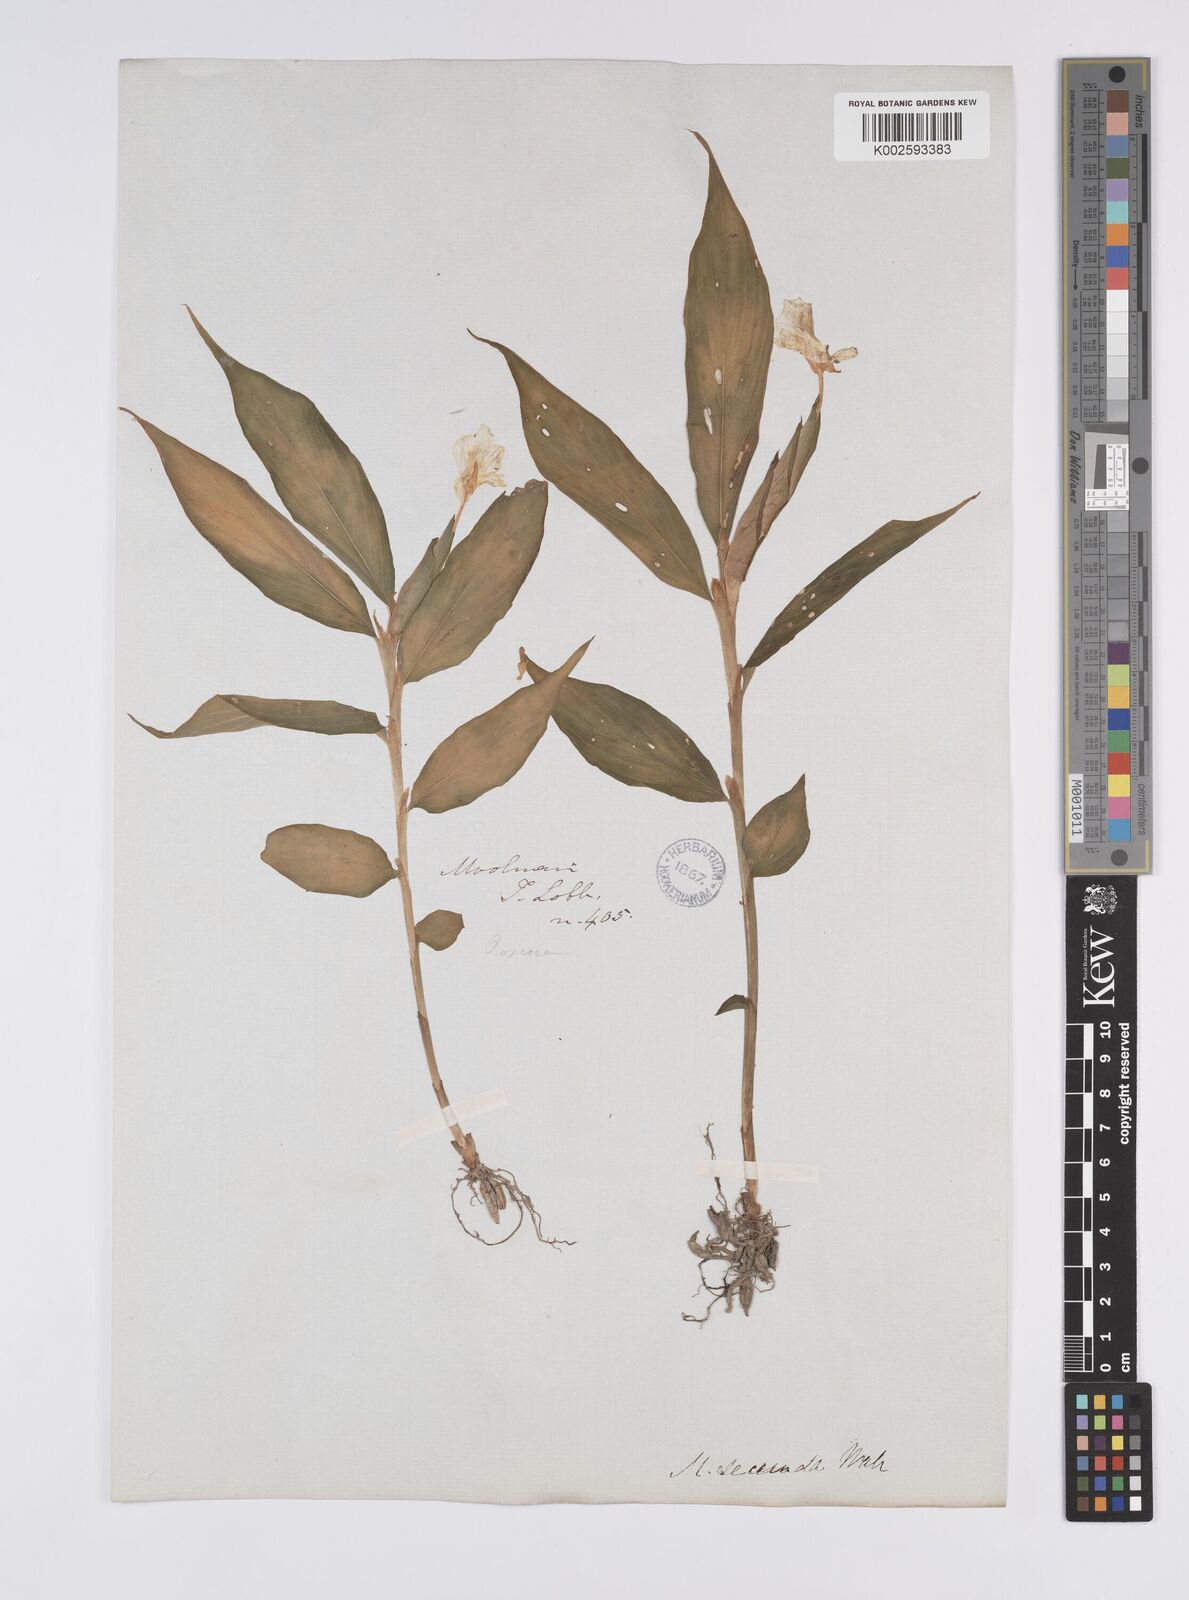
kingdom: Plantae
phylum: Tracheophyta
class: Liliopsida
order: Zingiberales
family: Zingiberaceae
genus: Caulokaempferia
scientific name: Caulokaempferia secunda
